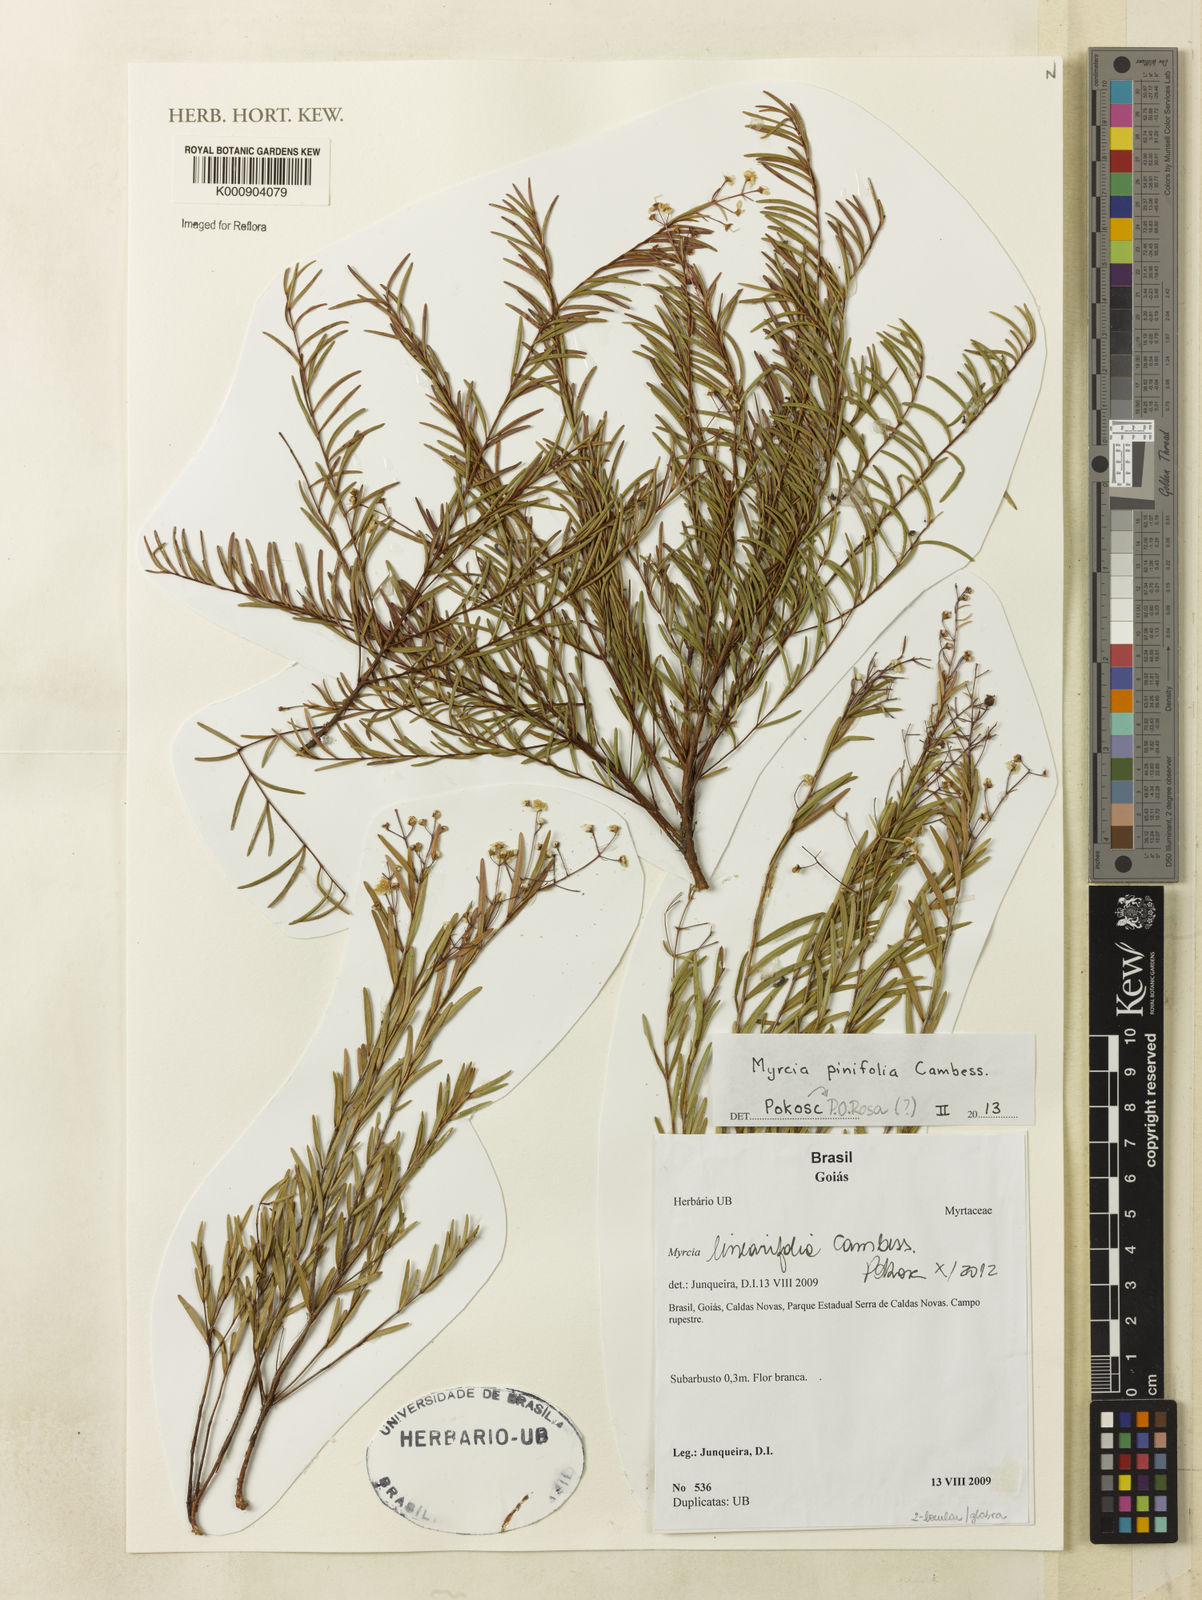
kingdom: Plantae
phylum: Tracheophyta
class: Magnoliopsida
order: Myrtales
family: Myrtaceae
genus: Myrcia
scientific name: Myrcia linearis
